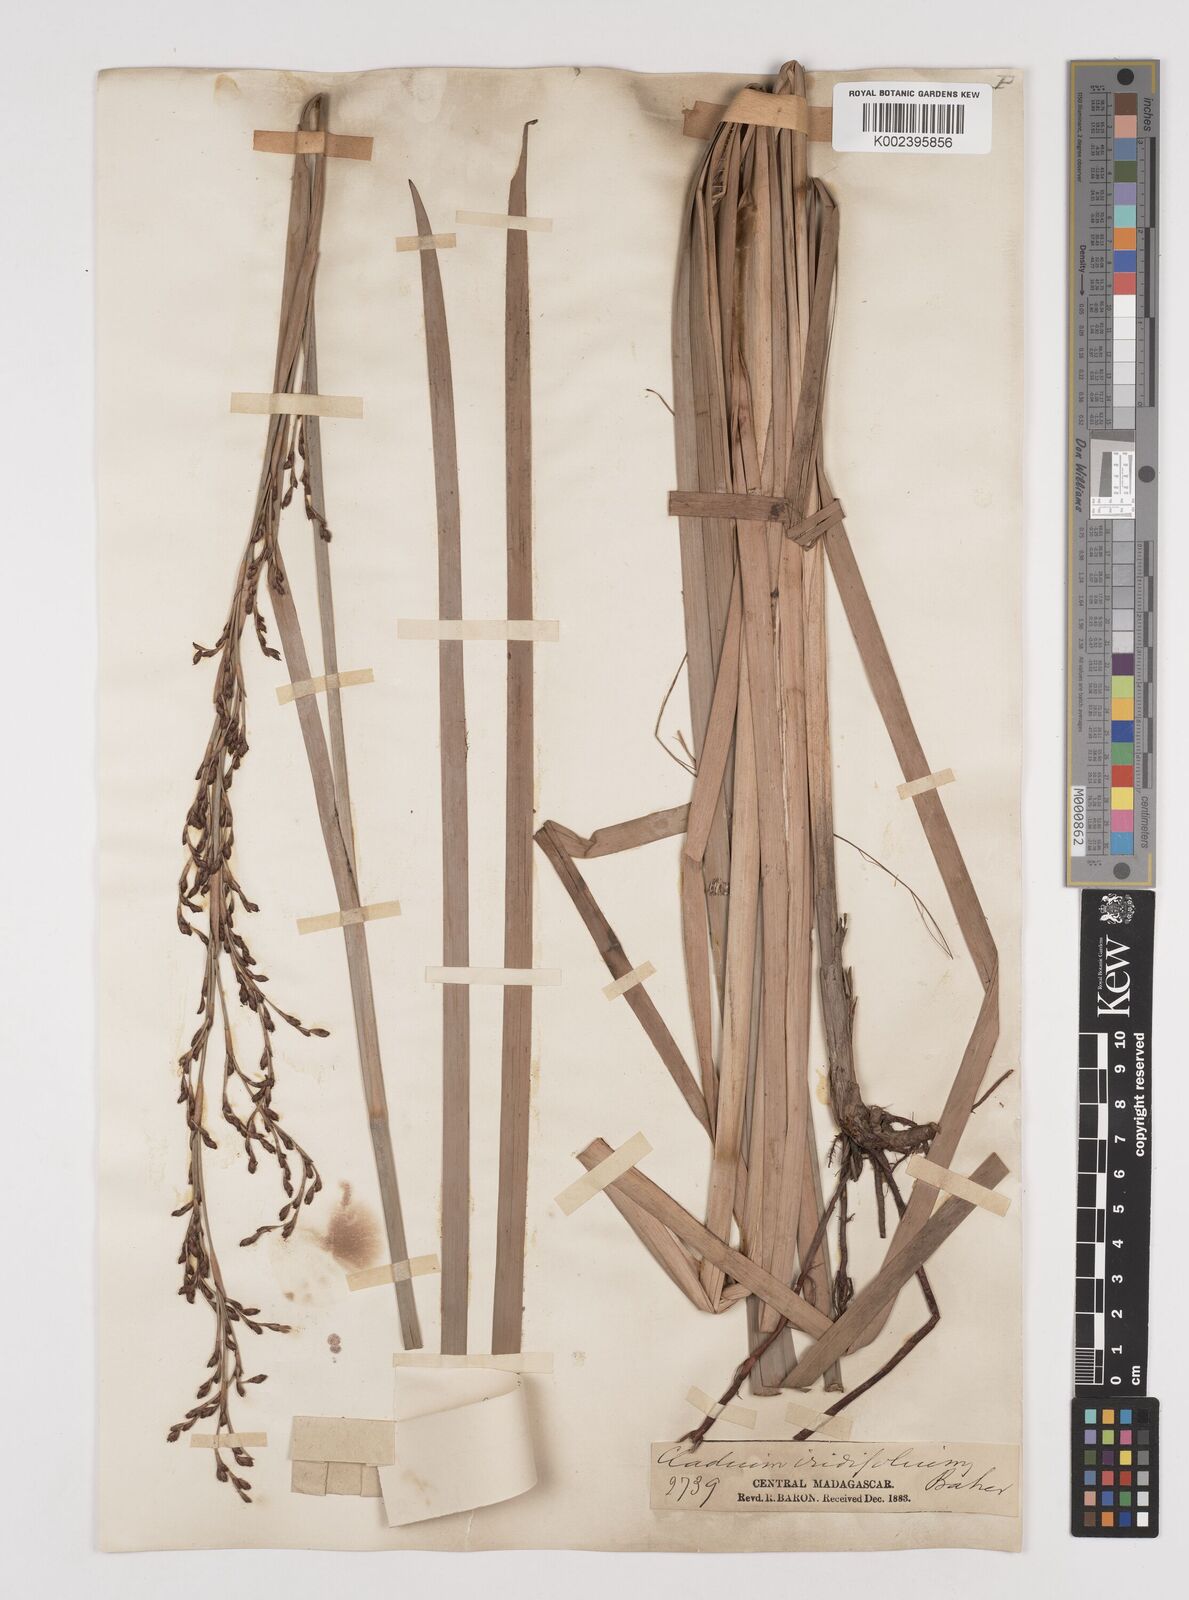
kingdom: Plantae
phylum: Tracheophyta
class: Liliopsida
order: Poales
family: Cyperaceae
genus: Machaerina
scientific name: Machaerina flexuosa
